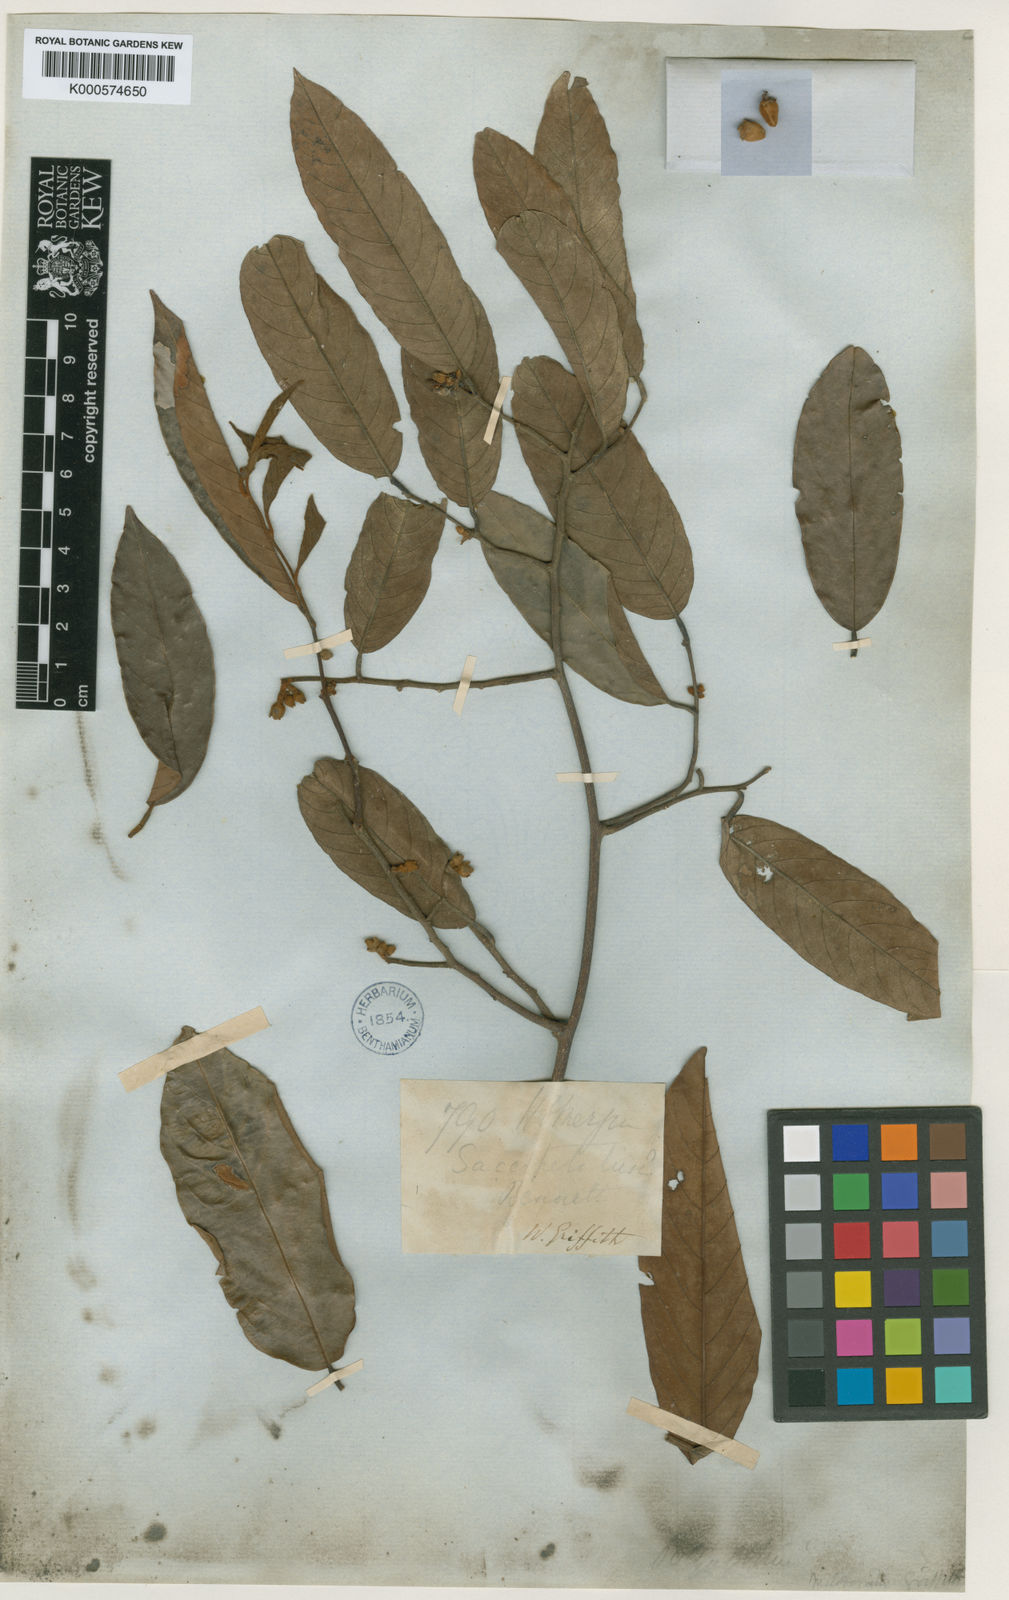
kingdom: Plantae
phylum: Tracheophyta
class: Magnoliopsida
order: Magnoliales
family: Annonaceae
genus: Fissistigma
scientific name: Fissistigma scandens
